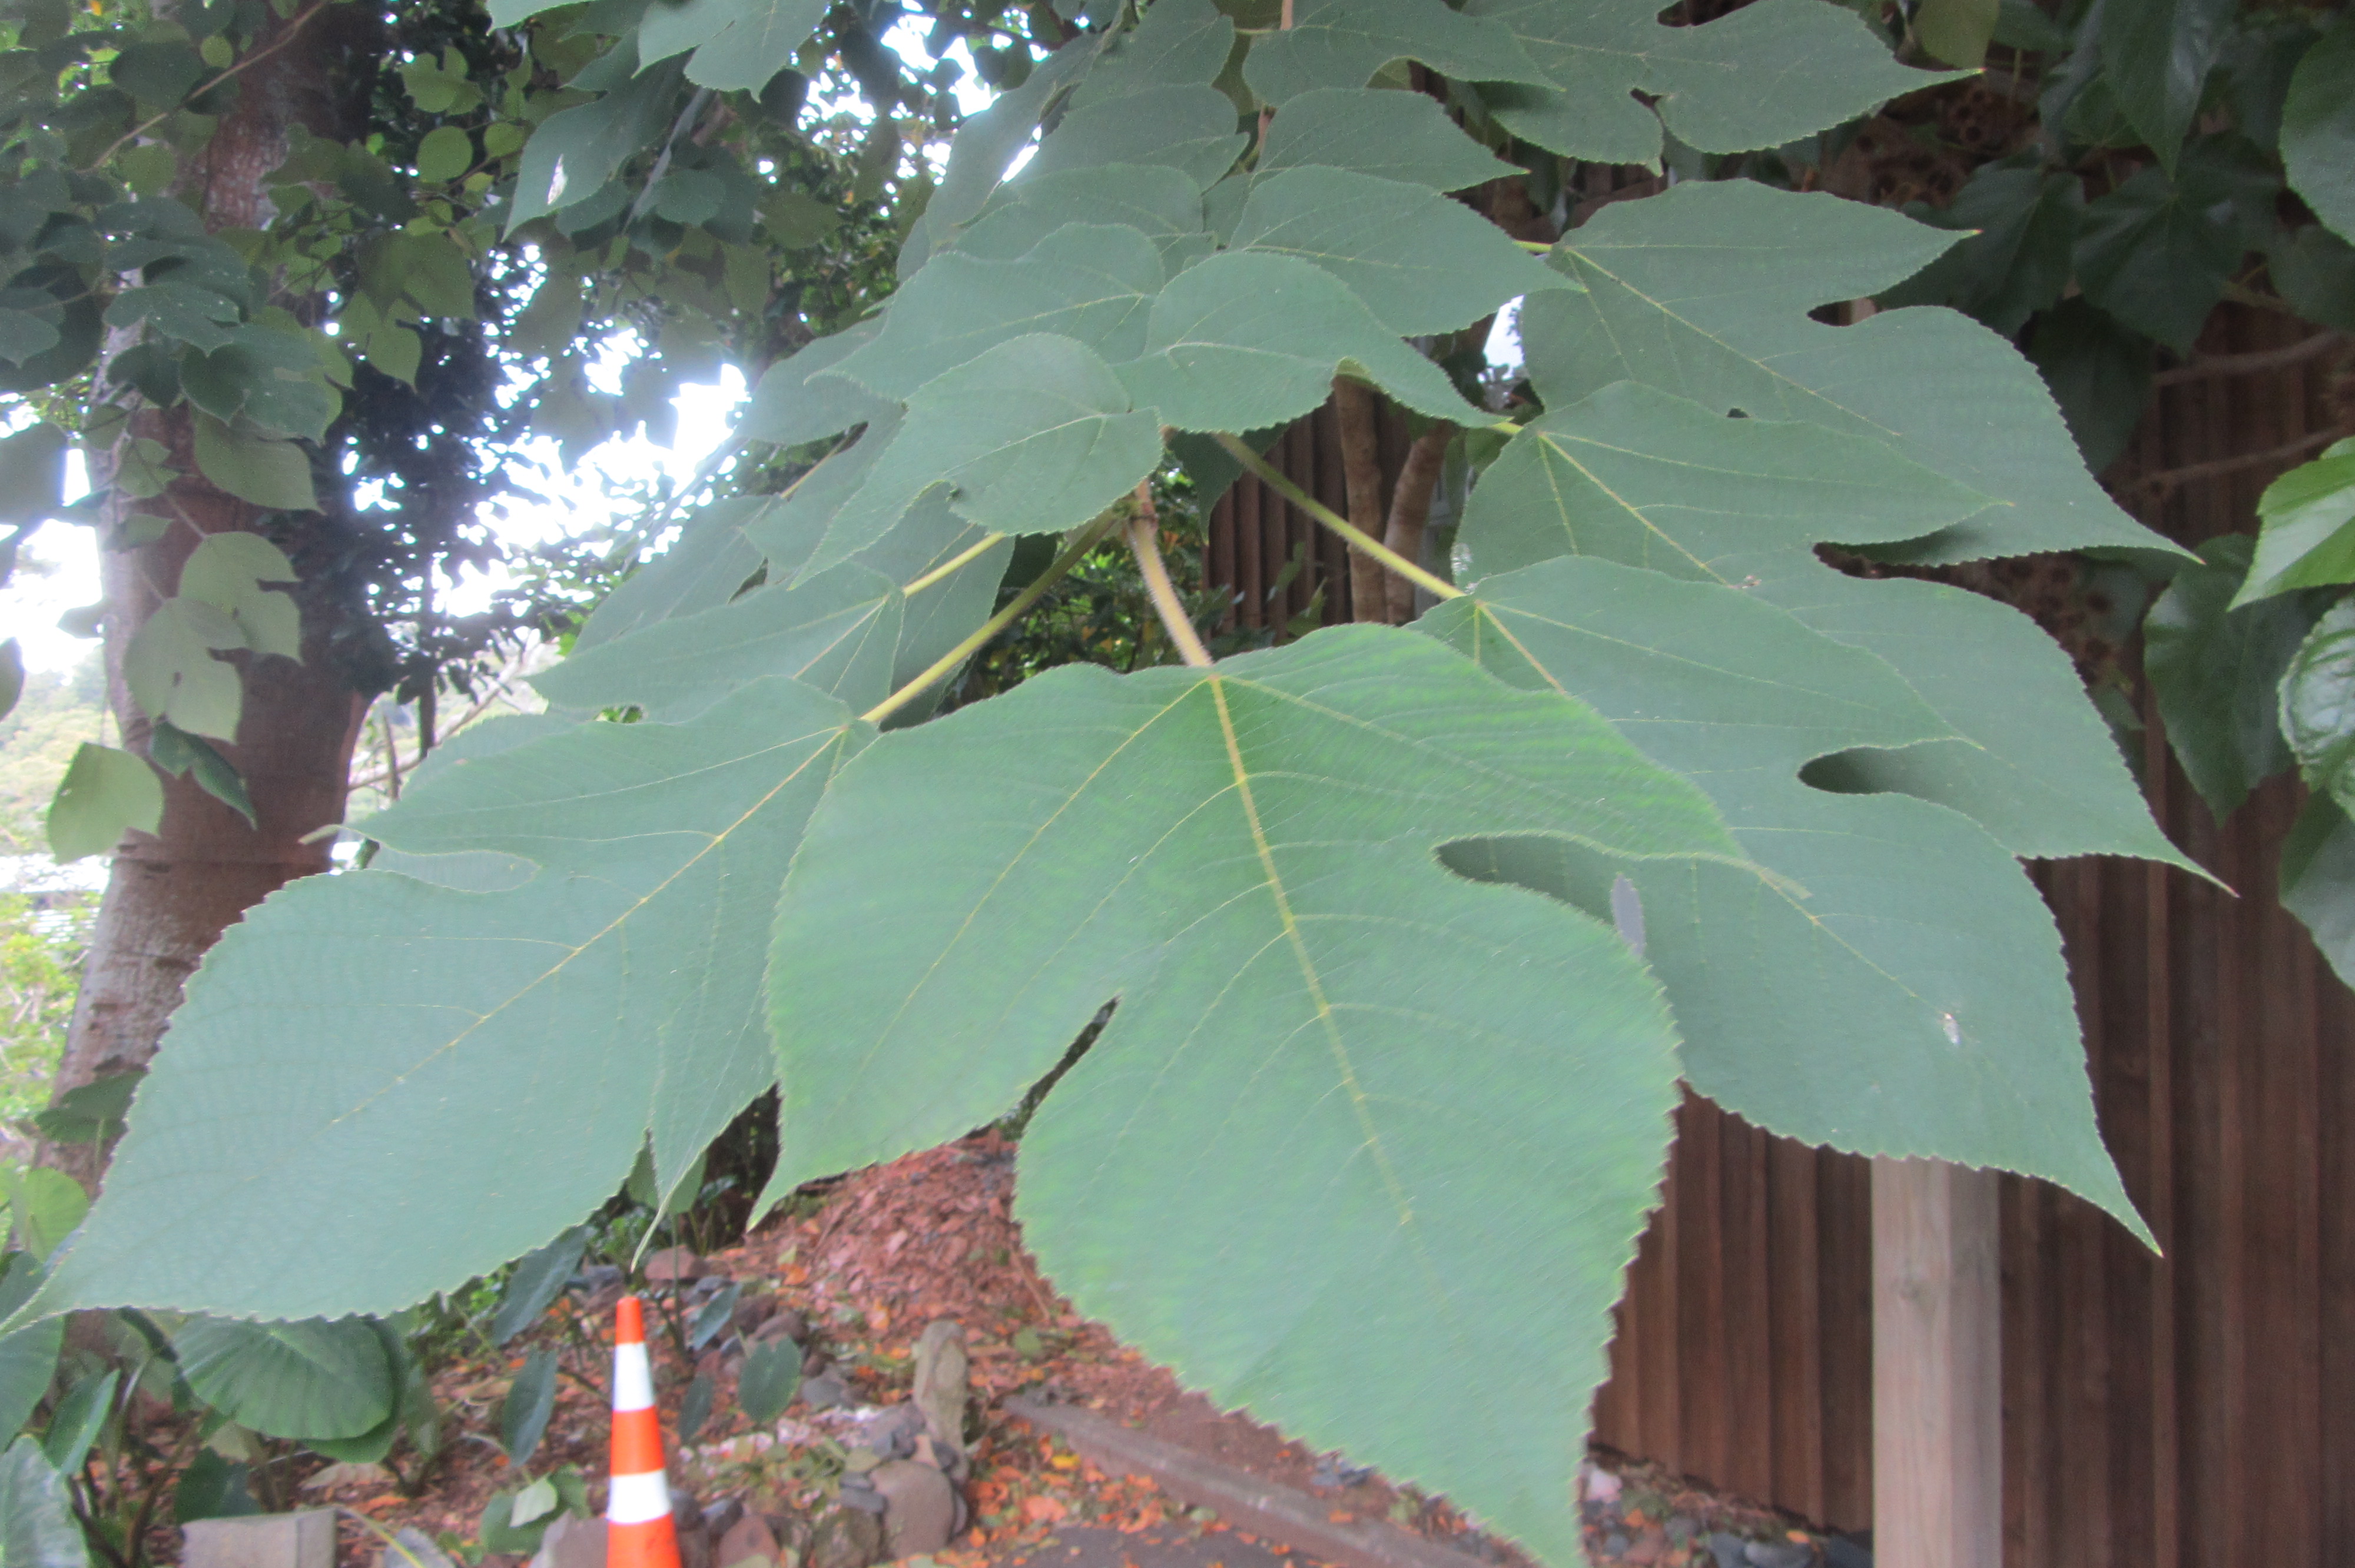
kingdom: Plantae
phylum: Tracheophyta
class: Magnoliopsida
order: Caryophyllales
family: Amaranthaceae
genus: Alternanthera
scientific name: Alternanthera philoxeroides
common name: Alligatorweed
